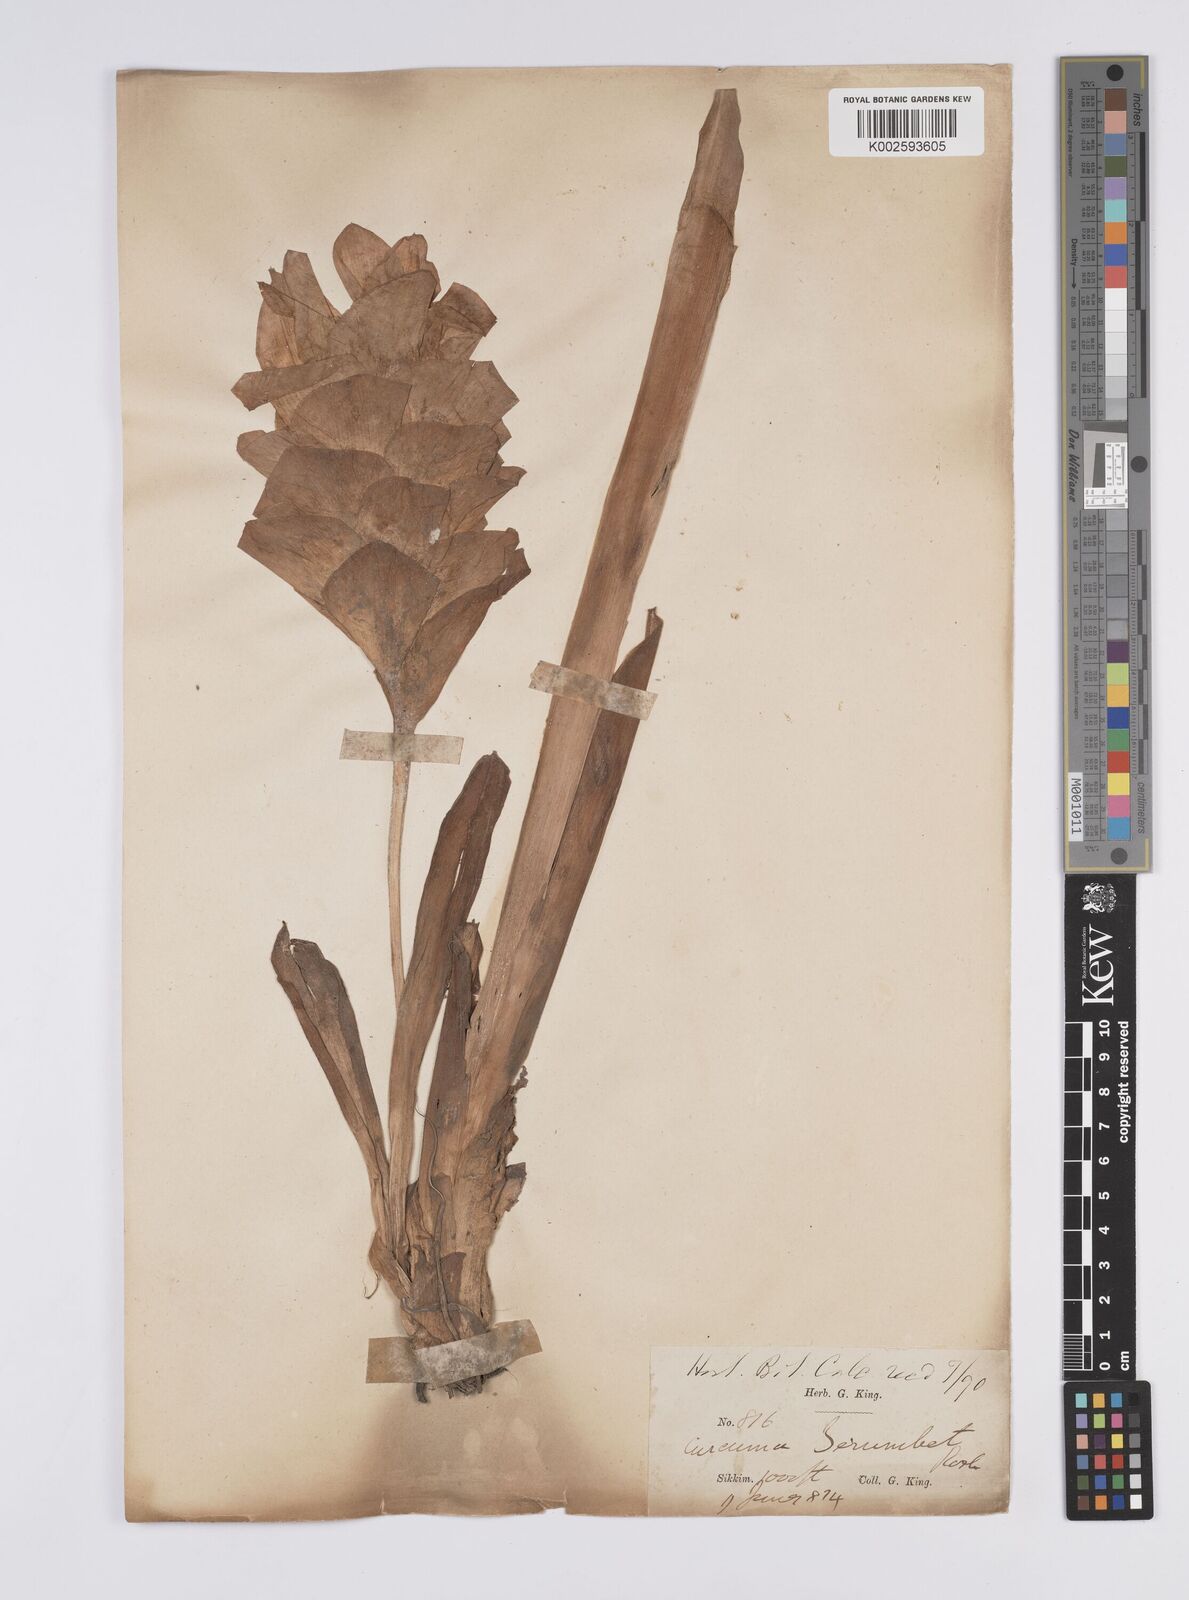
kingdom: Plantae
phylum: Tracheophyta
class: Liliopsida
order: Zingiberales
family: Zingiberaceae
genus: Curcuma
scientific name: Curcuma
